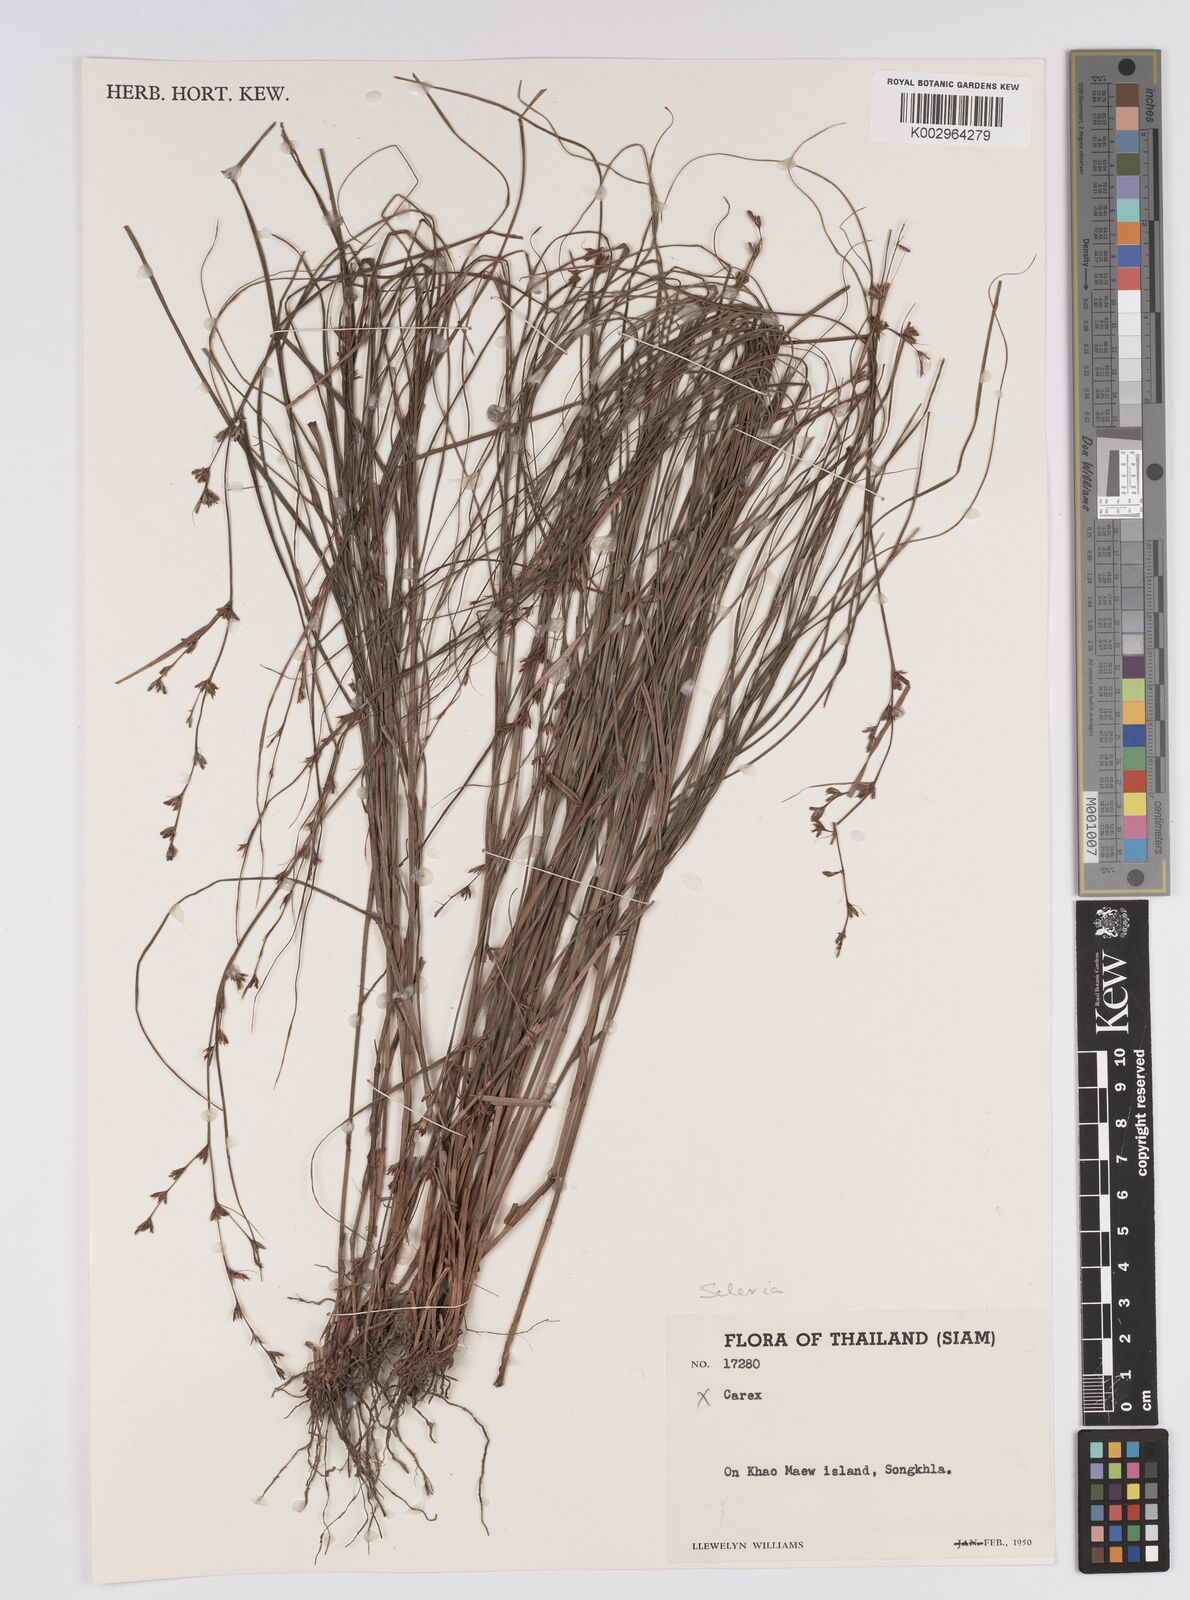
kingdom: Plantae
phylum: Tracheophyta
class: Liliopsida
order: Poales
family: Cyperaceae
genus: Scleria
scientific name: Scleria
